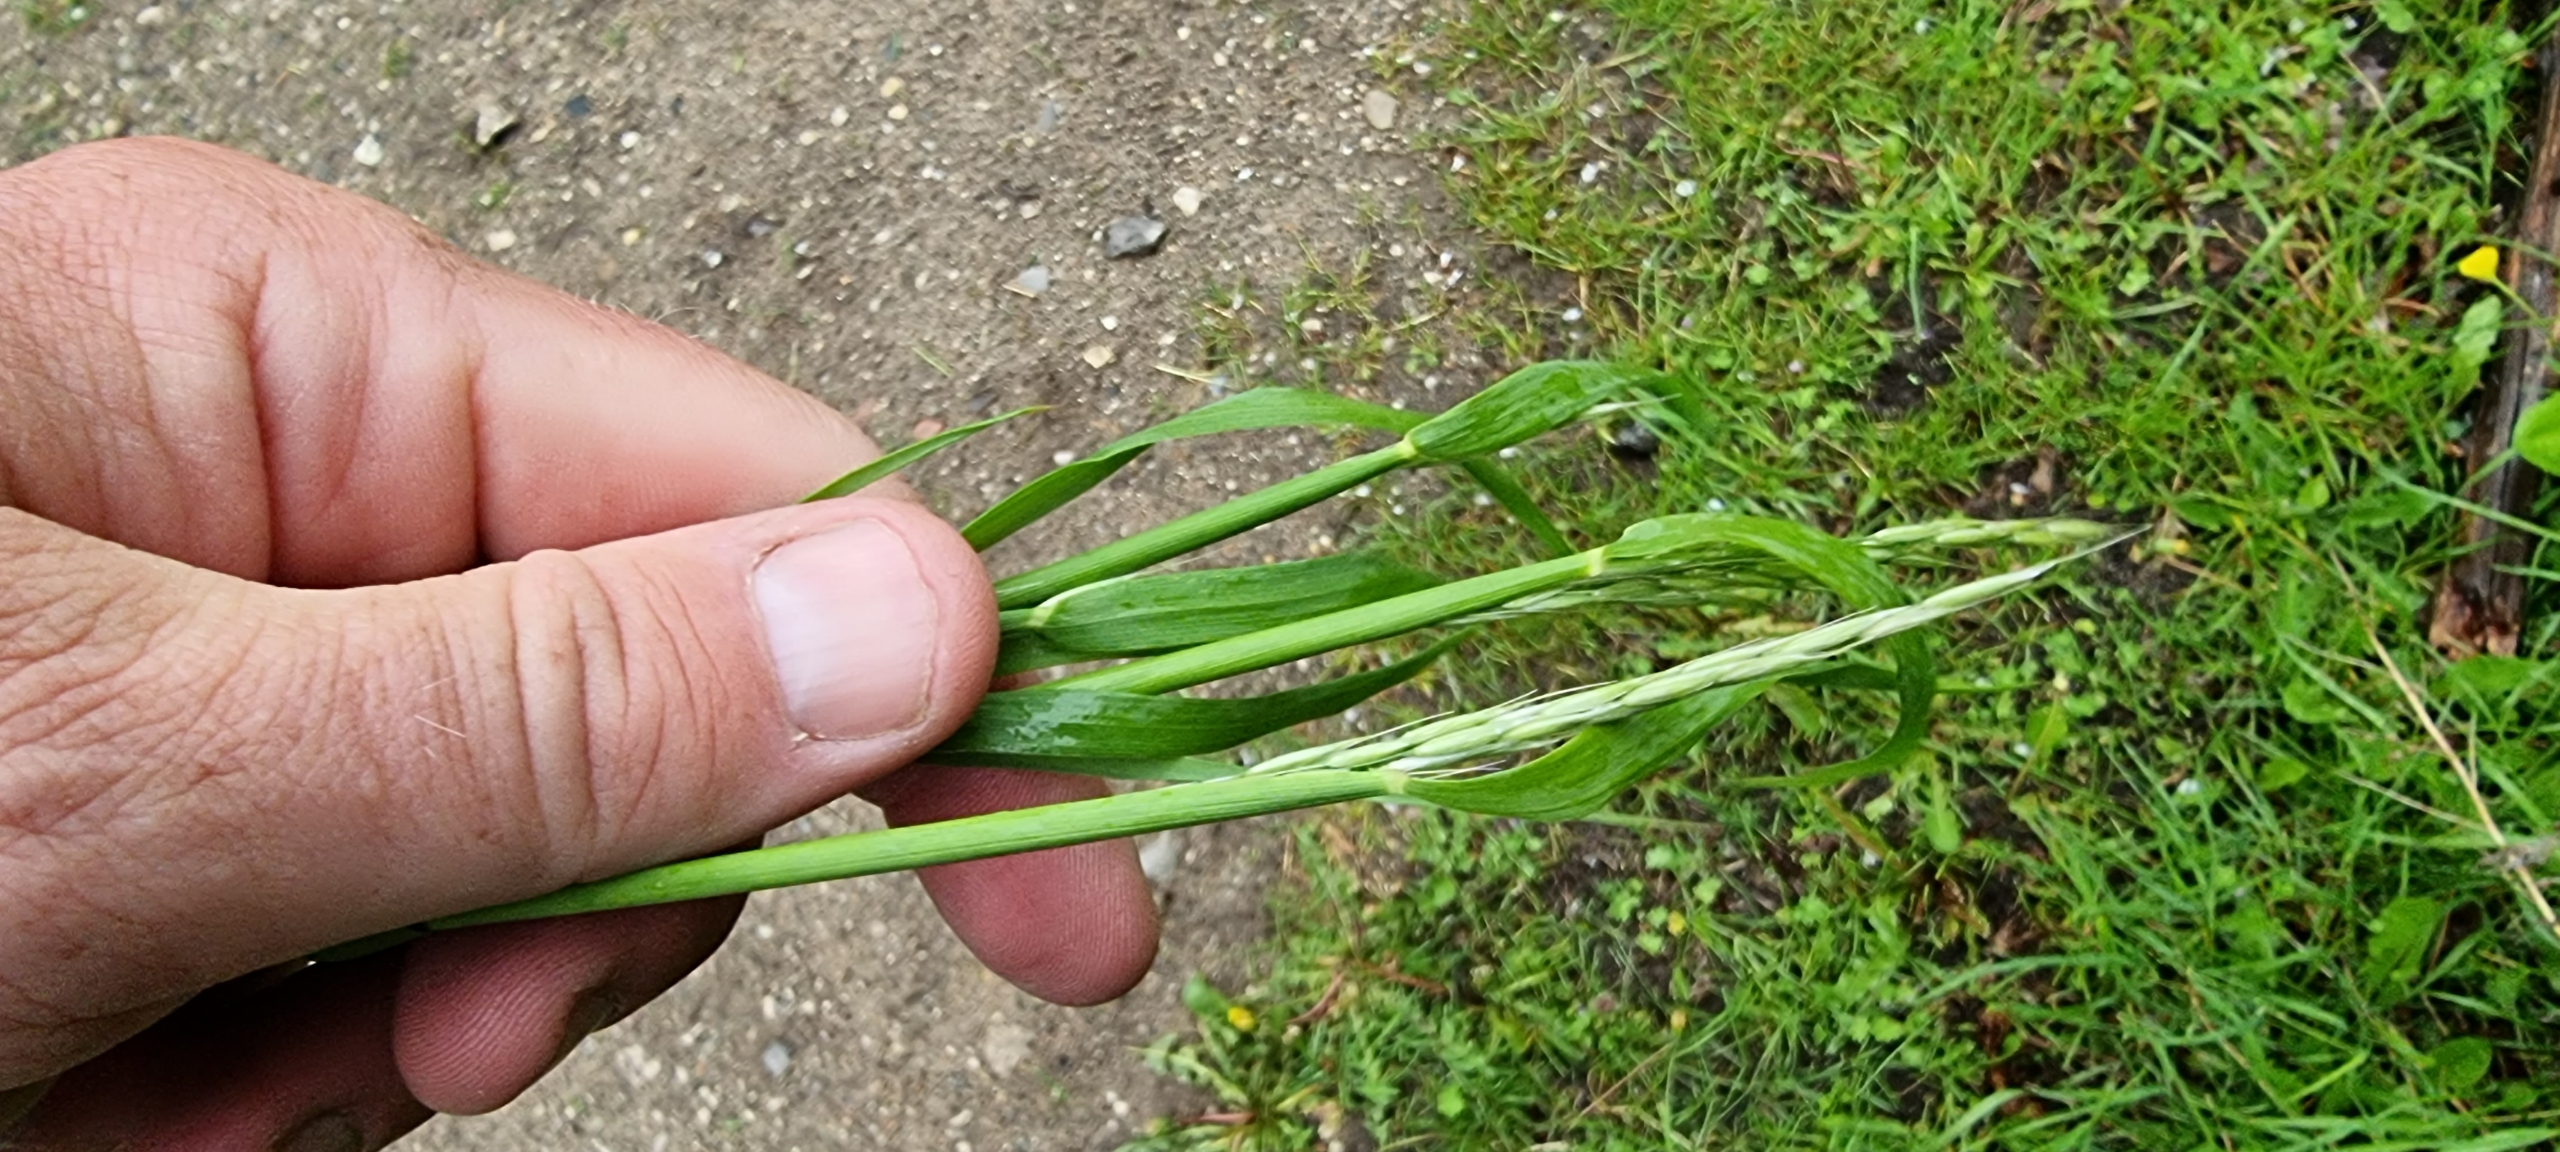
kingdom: Plantae
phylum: Tracheophyta
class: Liliopsida
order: Poales
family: Poaceae
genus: Arrhenatherum
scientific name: Arrhenatherum elatius
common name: Draphavre
